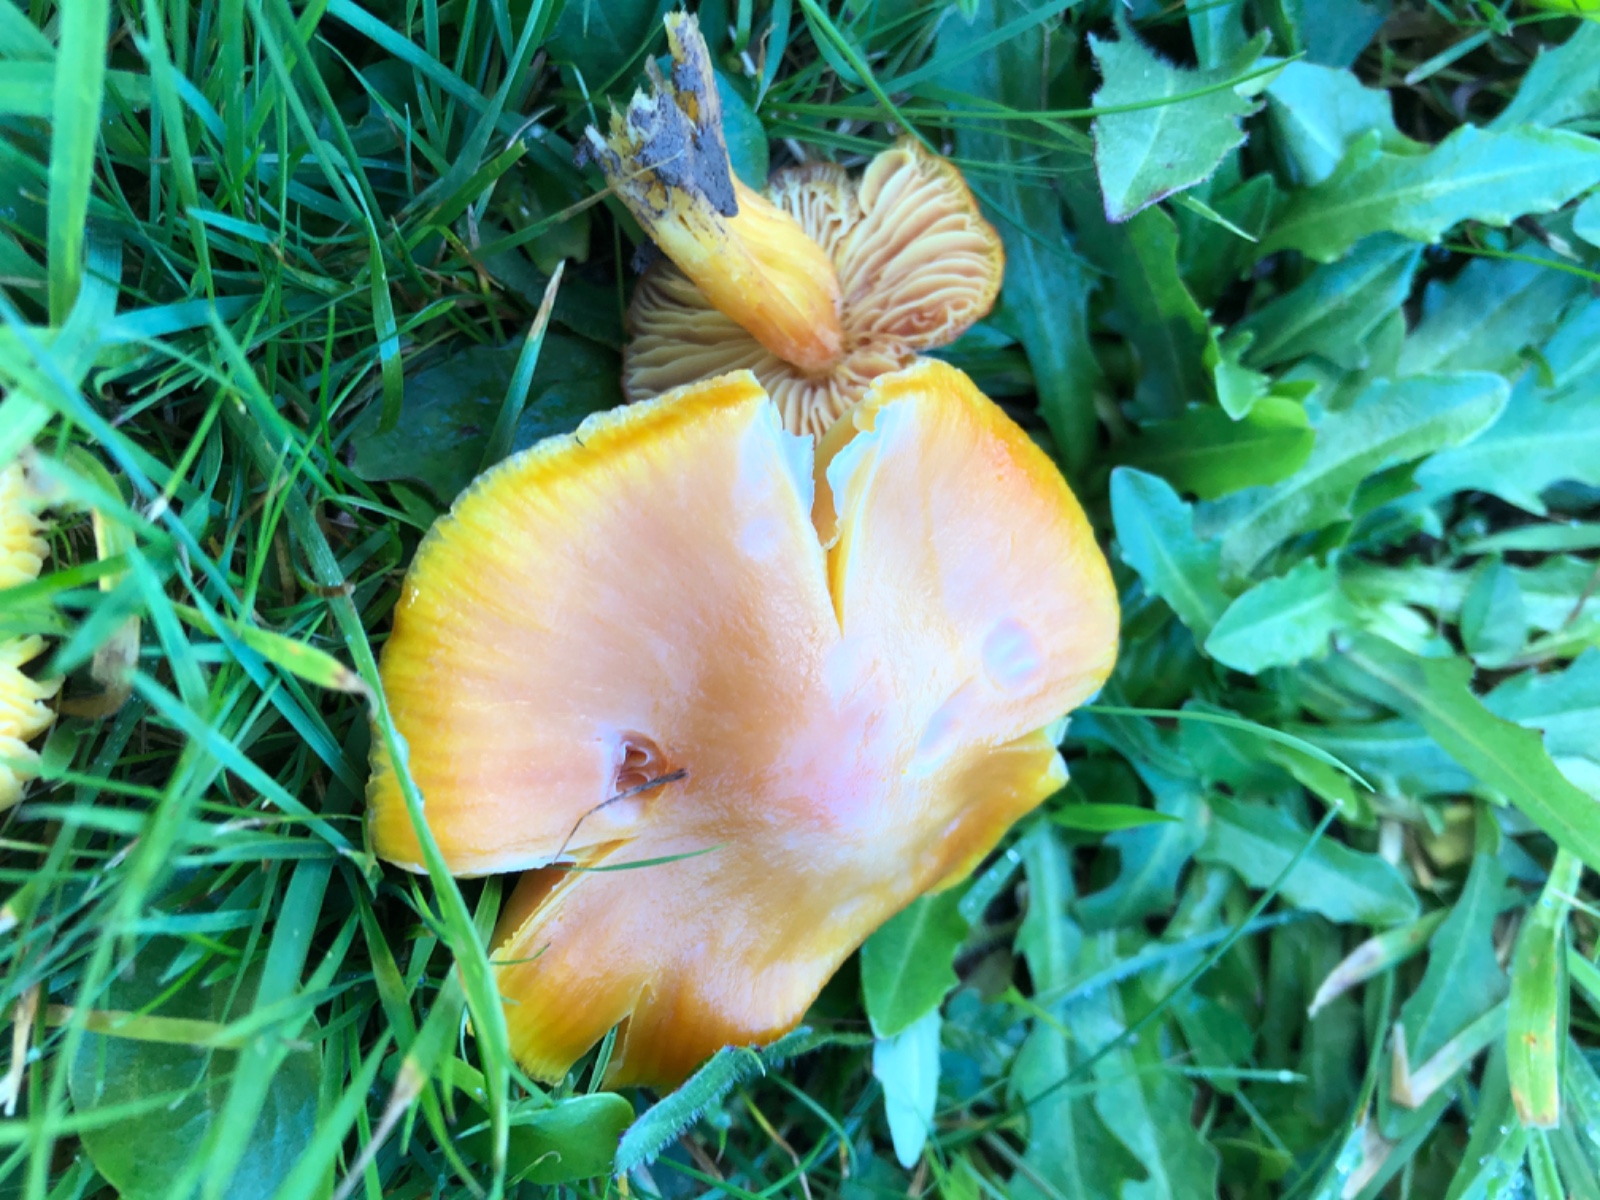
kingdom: Fungi
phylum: Basidiomycota
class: Agaricomycetes
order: Agaricales
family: Hygrophoraceae
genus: Hygrocybe
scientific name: Hygrocybe punicea
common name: skarlagen-vokshat
